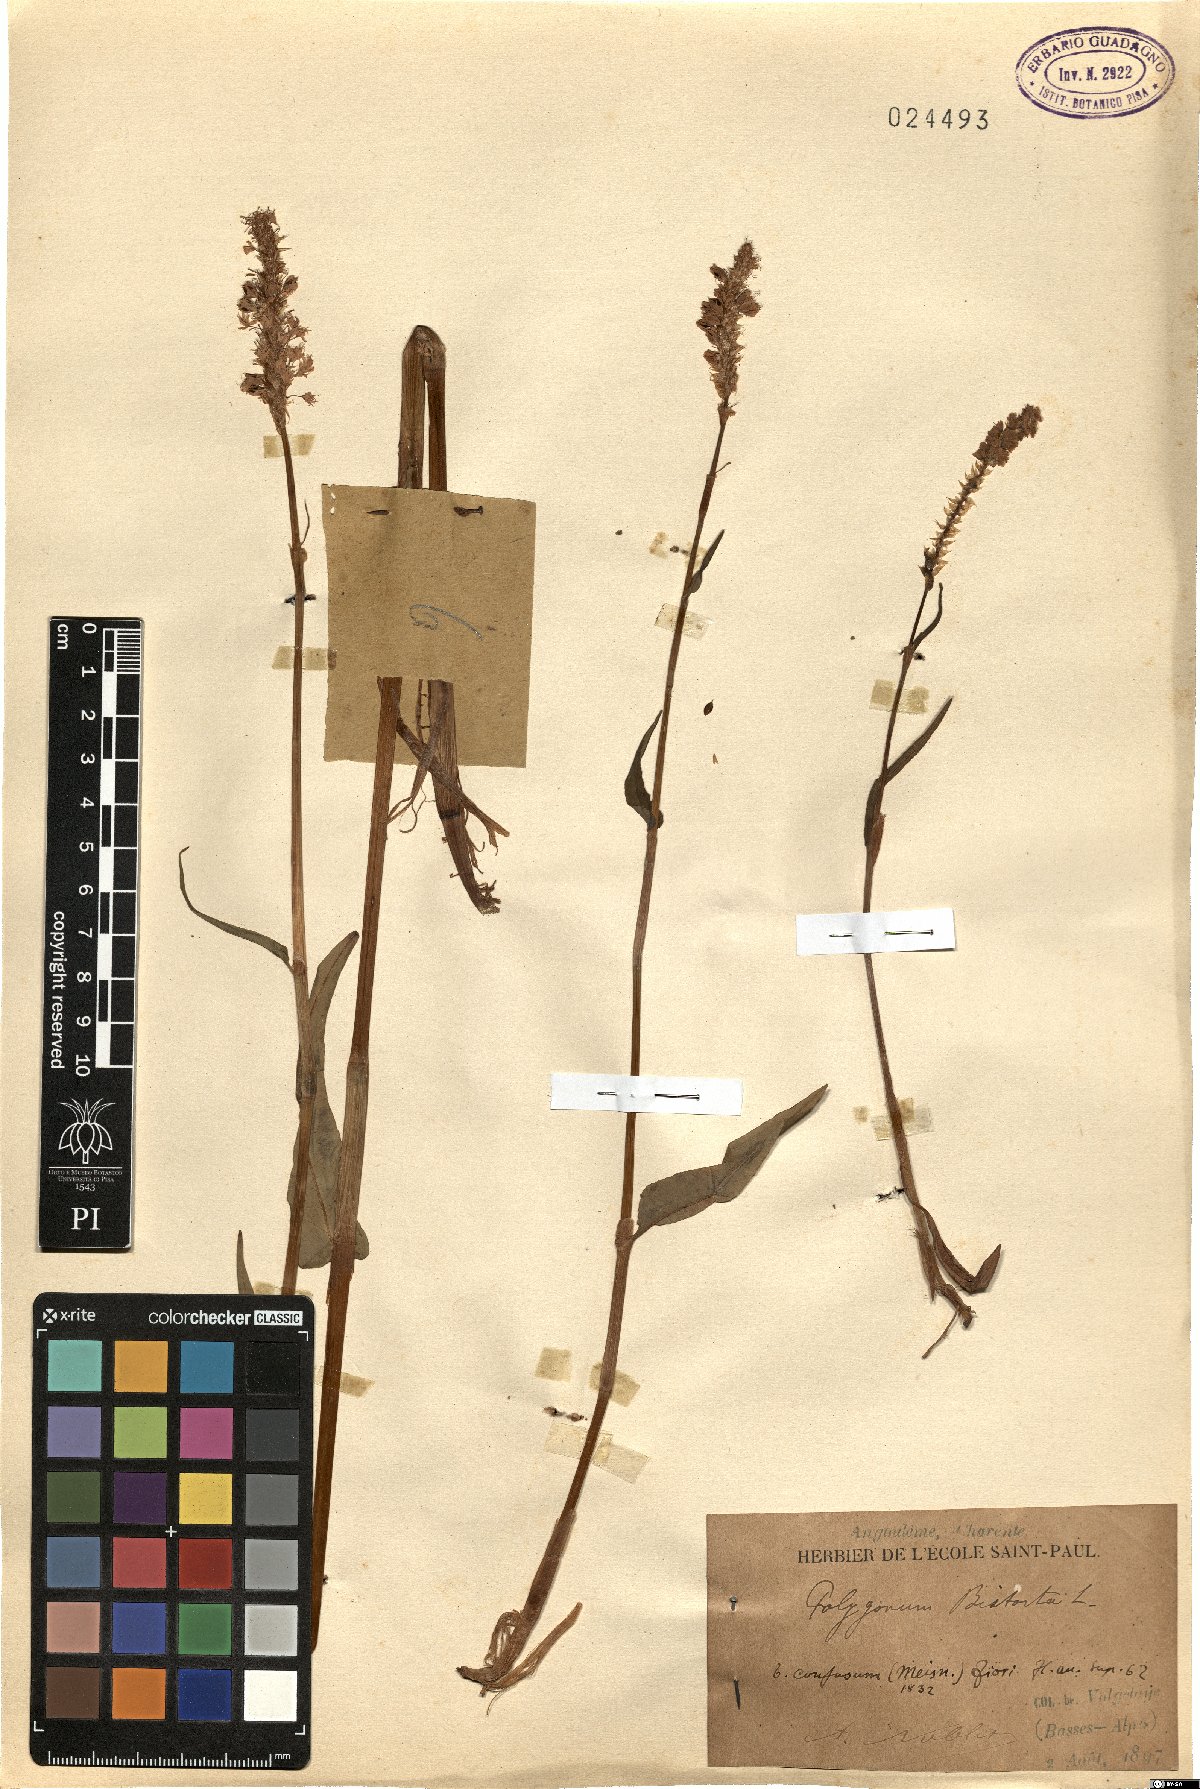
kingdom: Plantae
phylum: Tracheophyta
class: Magnoliopsida
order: Caryophyllales
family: Polygonaceae
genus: Polygonum
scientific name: Polygonum bistorta
